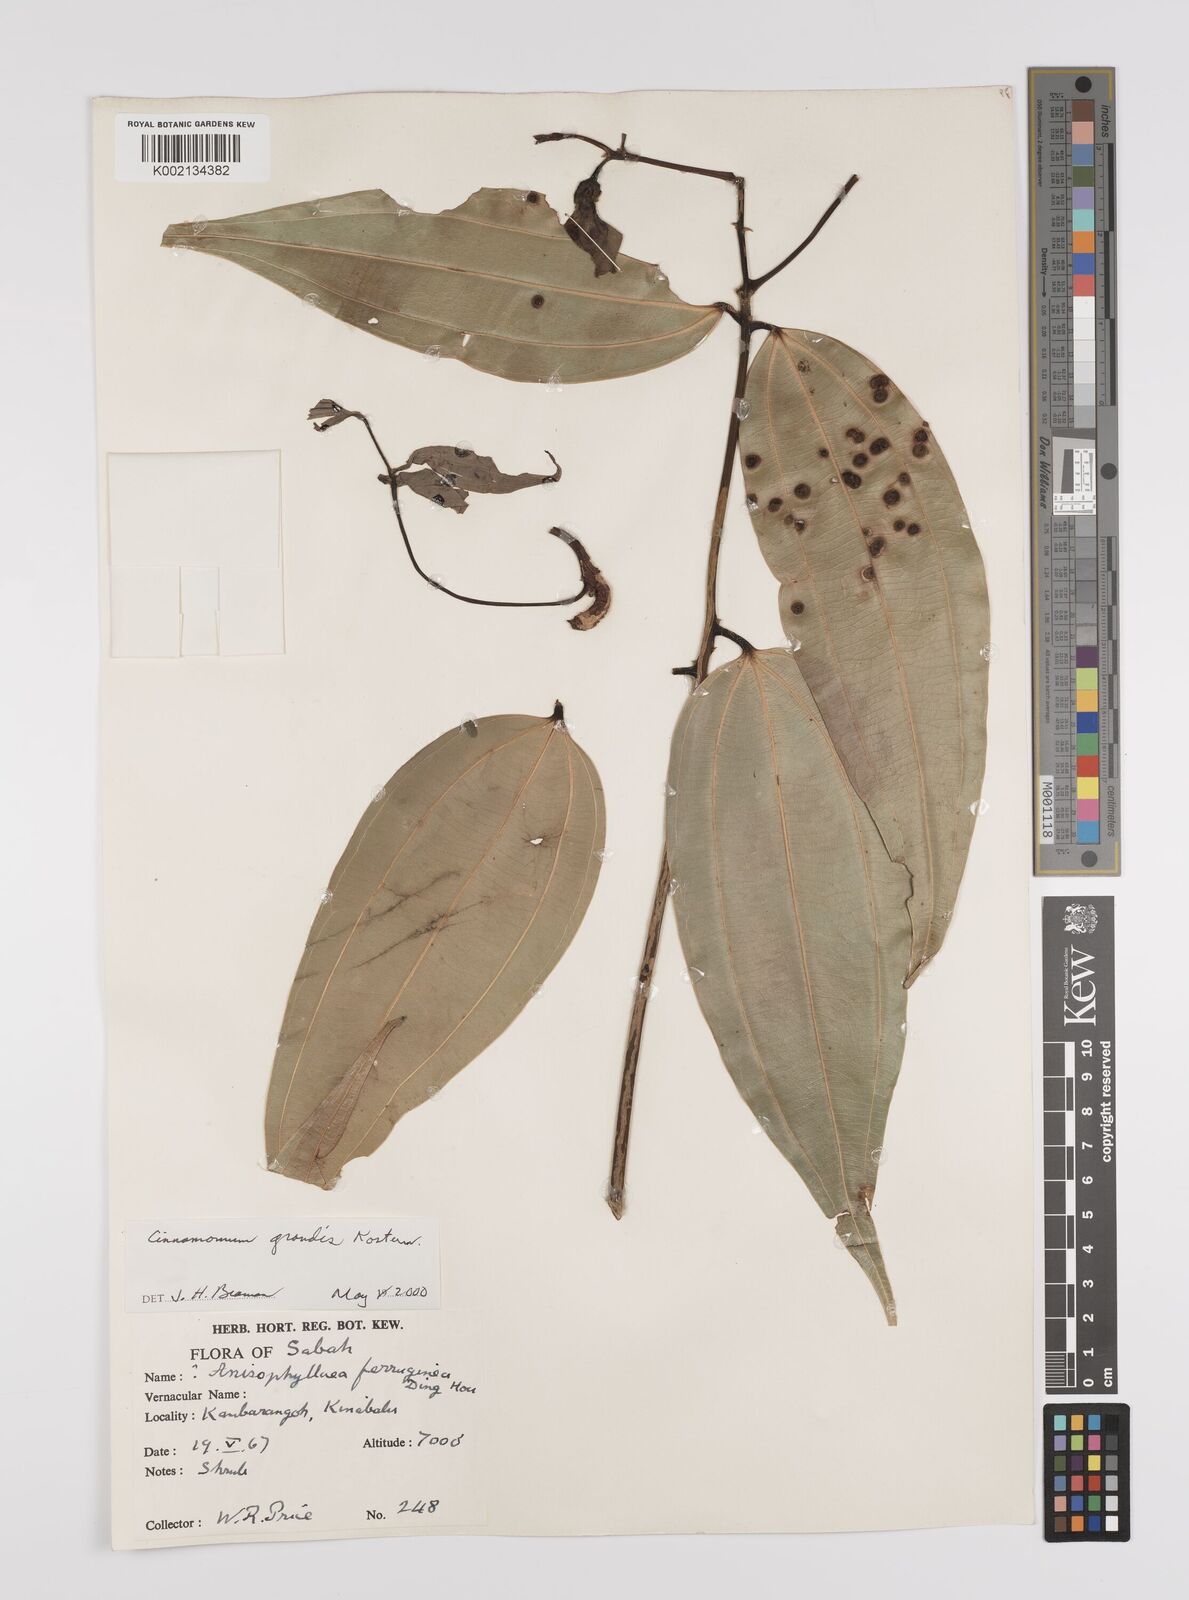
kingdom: Plantae
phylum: Tracheophyta
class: Magnoliopsida
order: Laurales
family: Lauraceae
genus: Cinnamomum
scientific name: Cinnamomum sintoc
